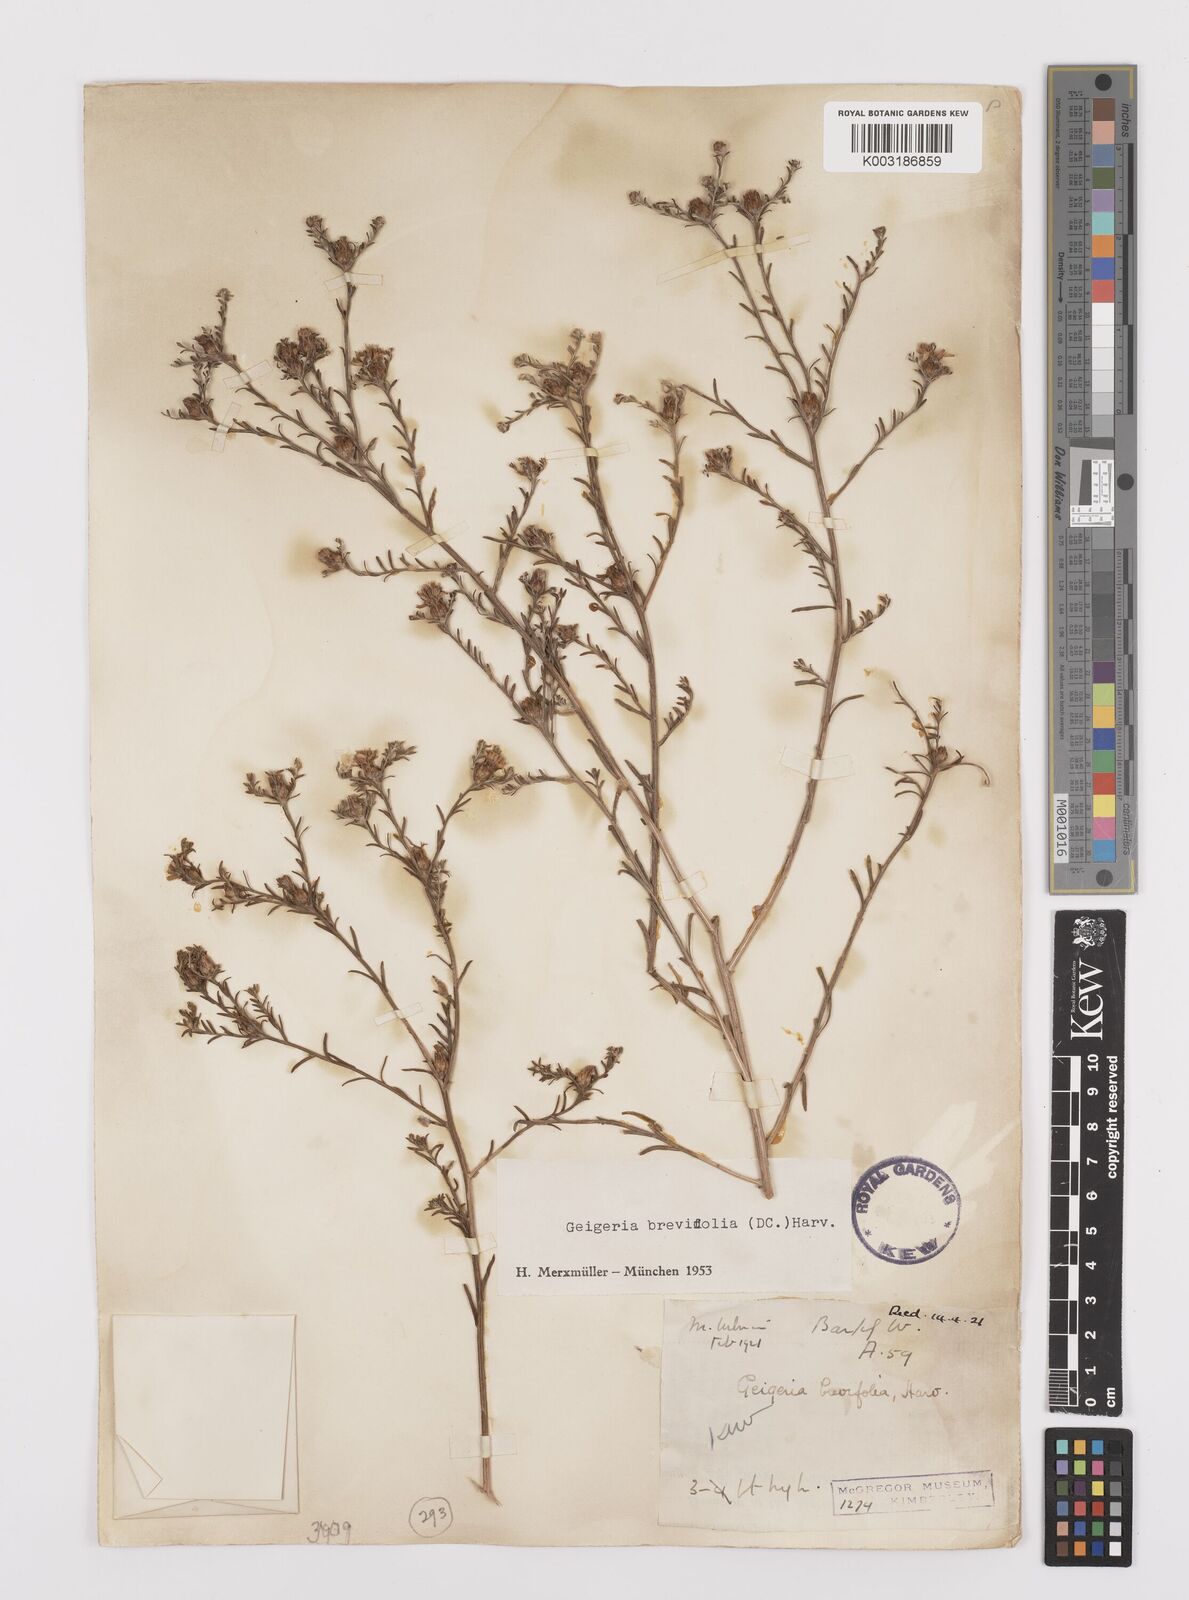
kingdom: Plantae
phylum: Tracheophyta
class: Magnoliopsida
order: Asterales
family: Asteraceae
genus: Geigeria
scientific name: Geigeria brevifolia
